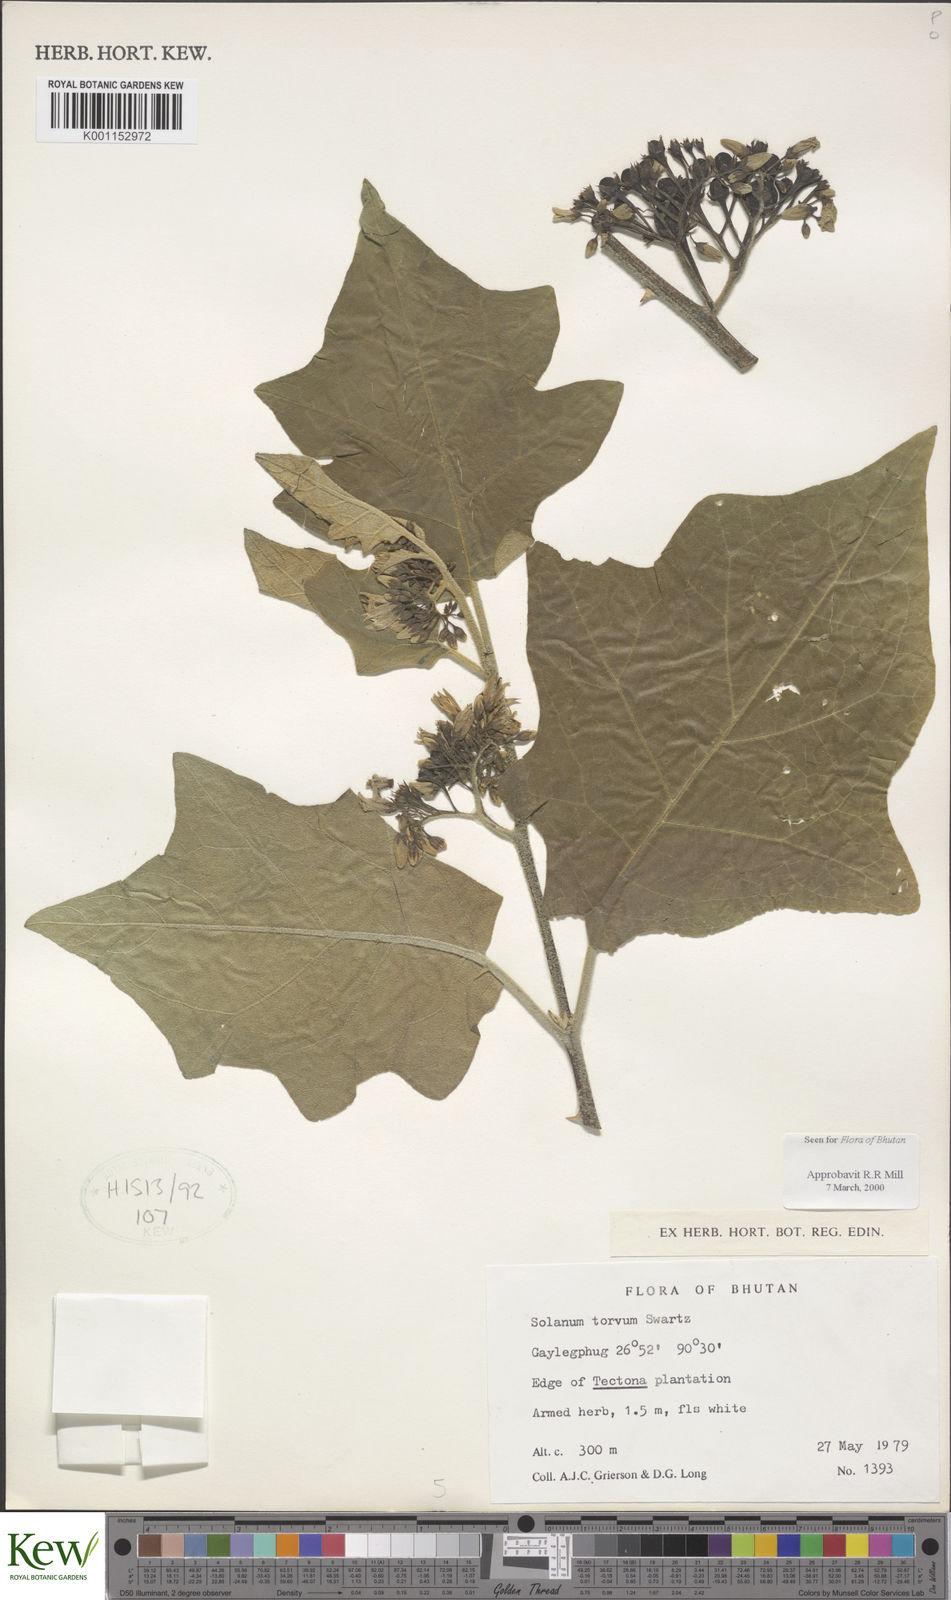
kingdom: Plantae
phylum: Tracheophyta
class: Magnoliopsida
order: Solanales
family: Solanaceae
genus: Solanum
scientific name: Solanum torvum
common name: Turkey berry
